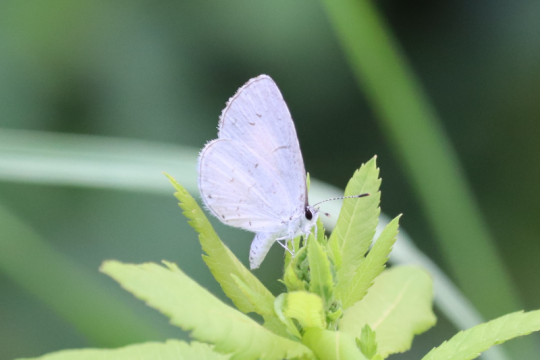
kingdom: Animalia
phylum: Arthropoda
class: Insecta
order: Lepidoptera
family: Lycaenidae
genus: Cyaniris
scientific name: Cyaniris neglecta
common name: Summer Azure
